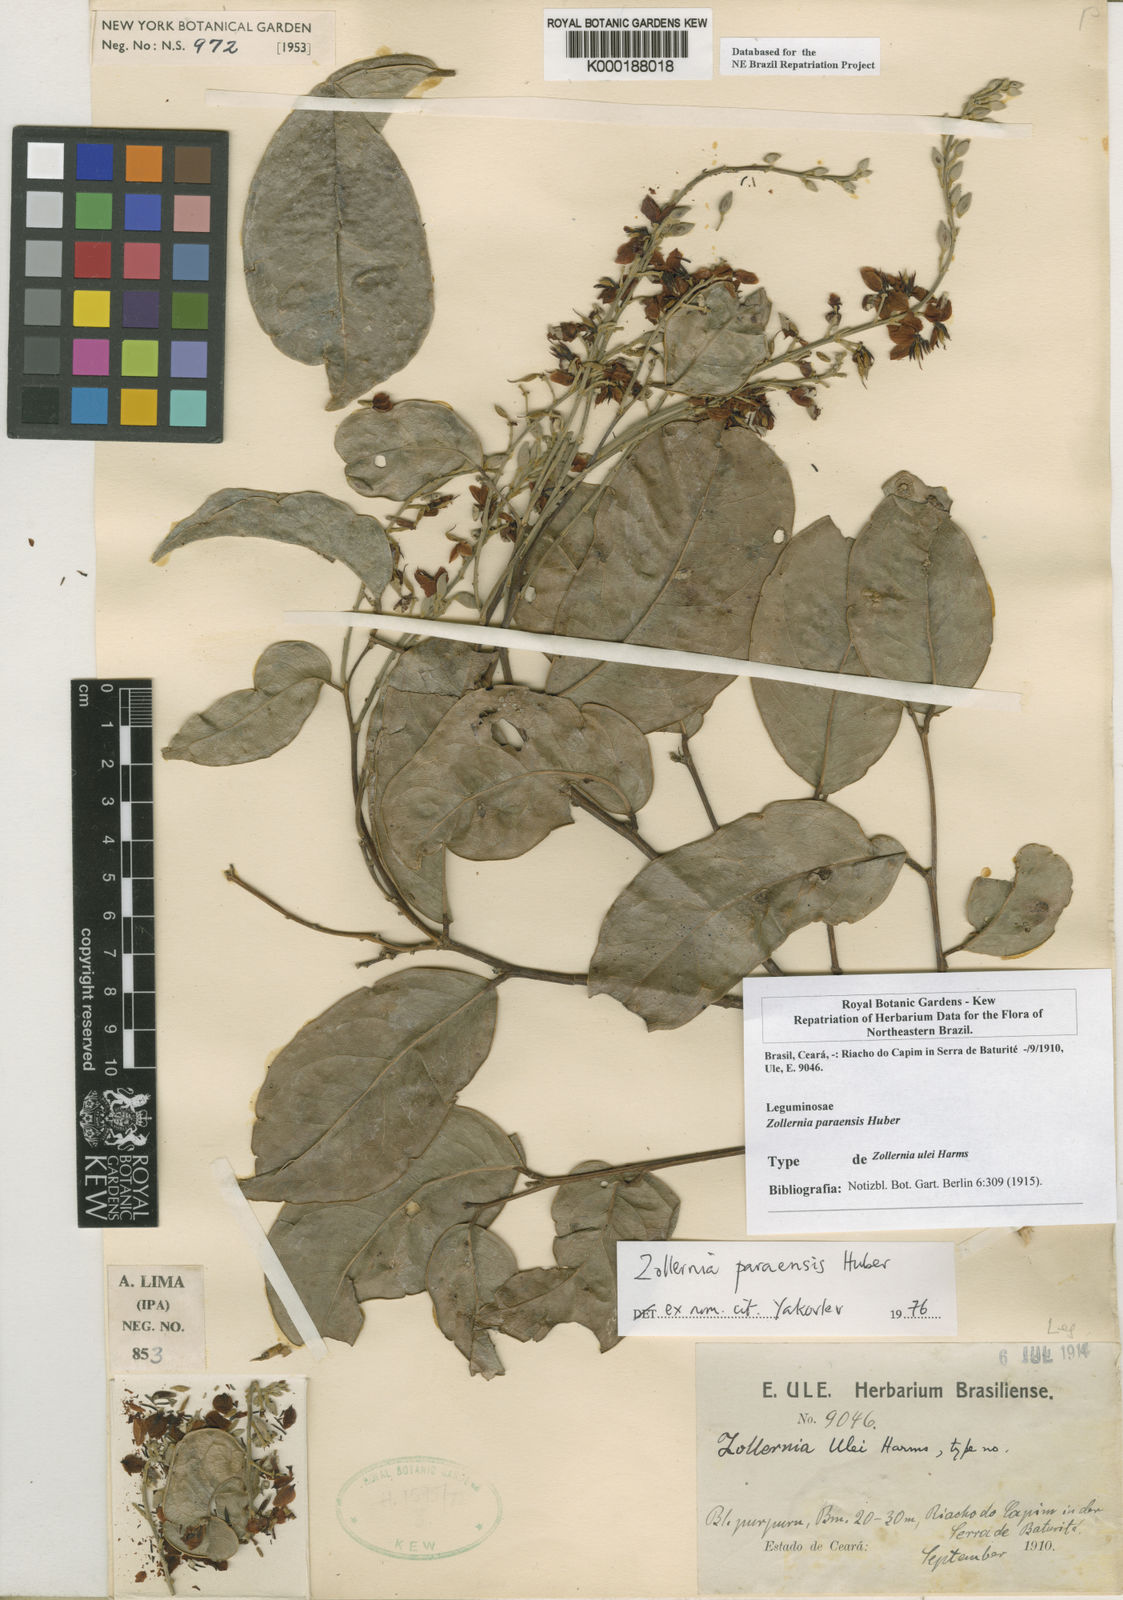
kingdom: Plantae
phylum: Tracheophyta
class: Magnoliopsida
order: Fabales
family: Fabaceae
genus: Zollernia
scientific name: Zollernia paraensis
